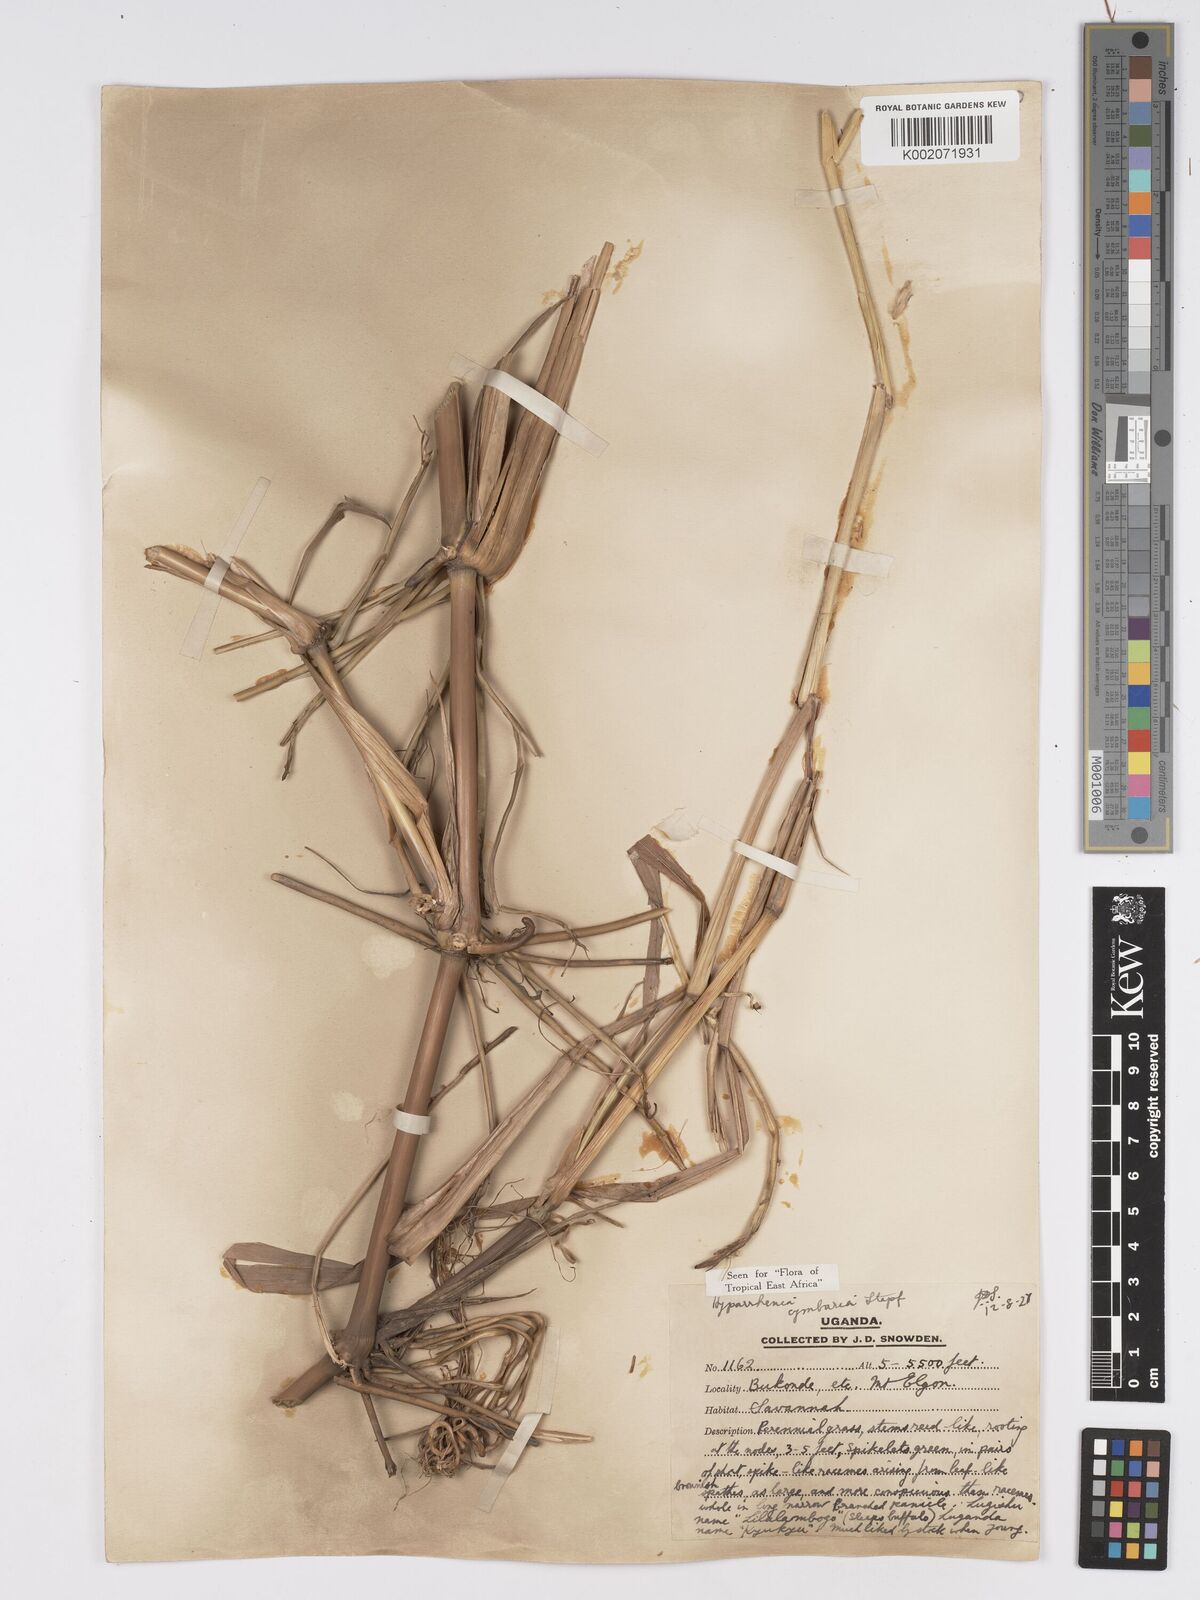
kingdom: Plantae
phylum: Tracheophyta
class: Liliopsida
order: Poales
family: Poaceae
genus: Hyparrhenia
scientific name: Hyparrhenia cymbaria
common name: Boat thatching grass
